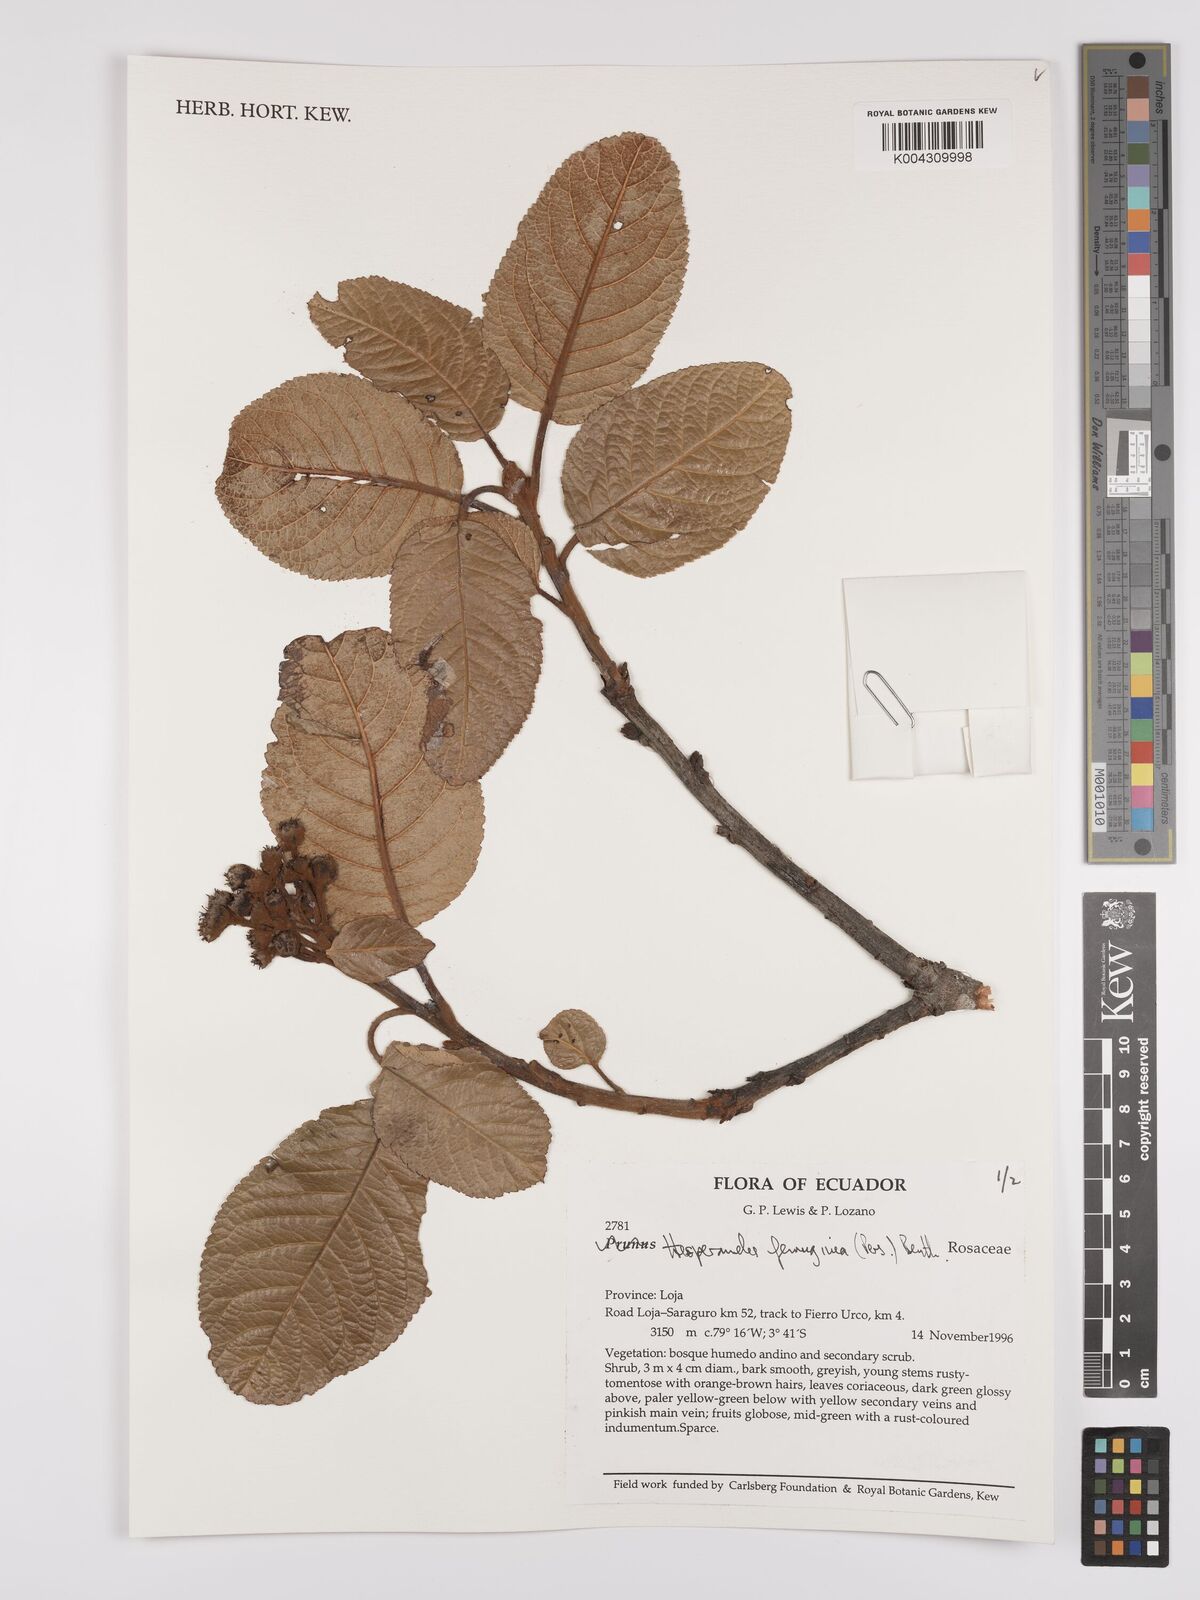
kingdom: Plantae
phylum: Tracheophyta
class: Magnoliopsida
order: Rosales
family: Rosaceae
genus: Hesperomeles
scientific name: Hesperomeles ferruginea
